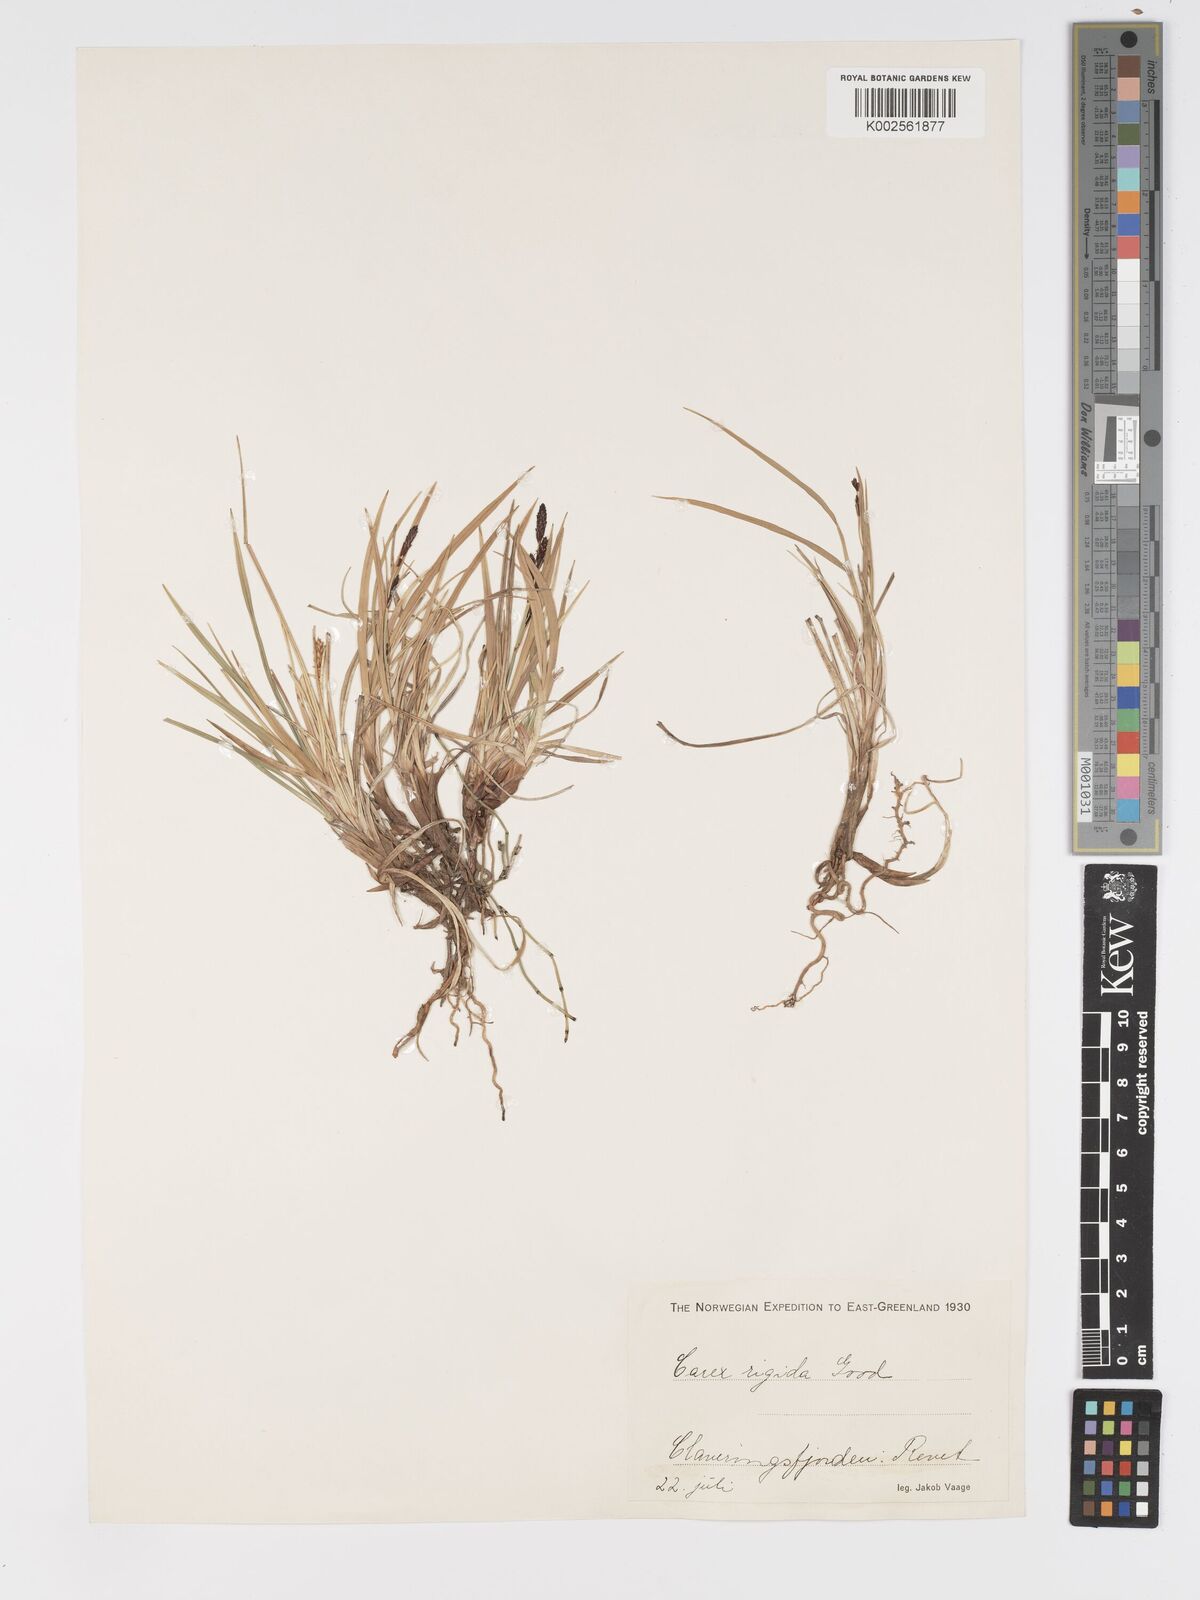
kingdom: Plantae
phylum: Tracheophyta
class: Liliopsida
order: Poales
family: Cyperaceae
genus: Carex
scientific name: Carex bigelowii
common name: Stiff sedge
